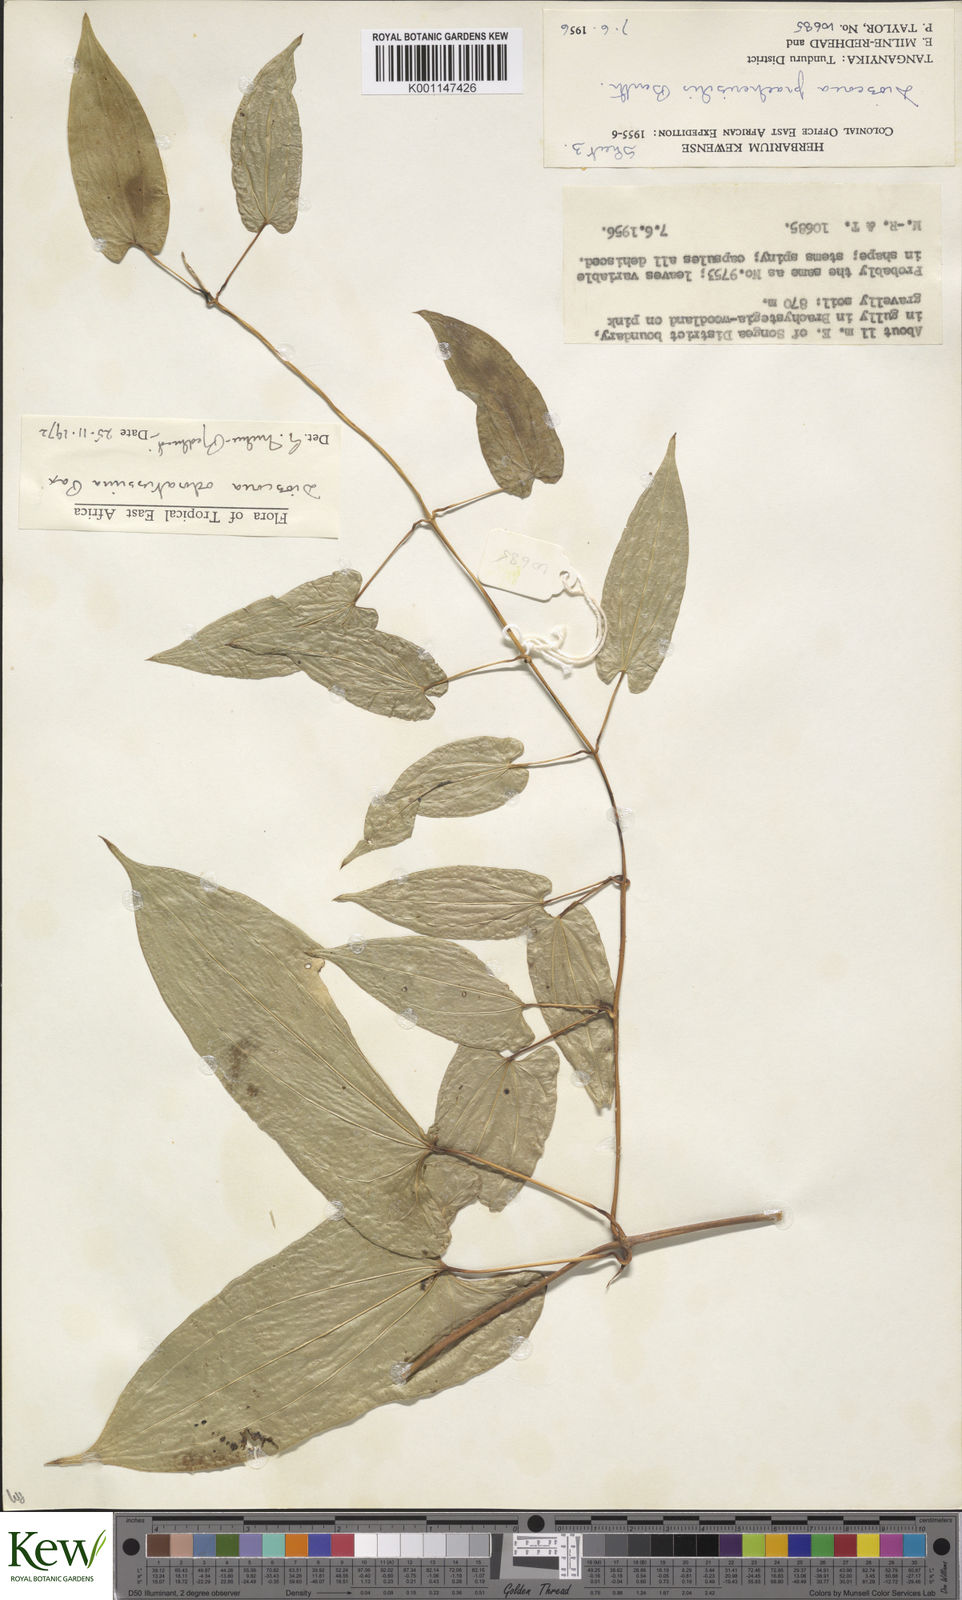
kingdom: Plantae
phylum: Tracheophyta
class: Liliopsida
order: Dioscoreales
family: Dioscoreaceae
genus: Dioscorea
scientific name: Dioscorea praehensilis
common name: Bush yam
